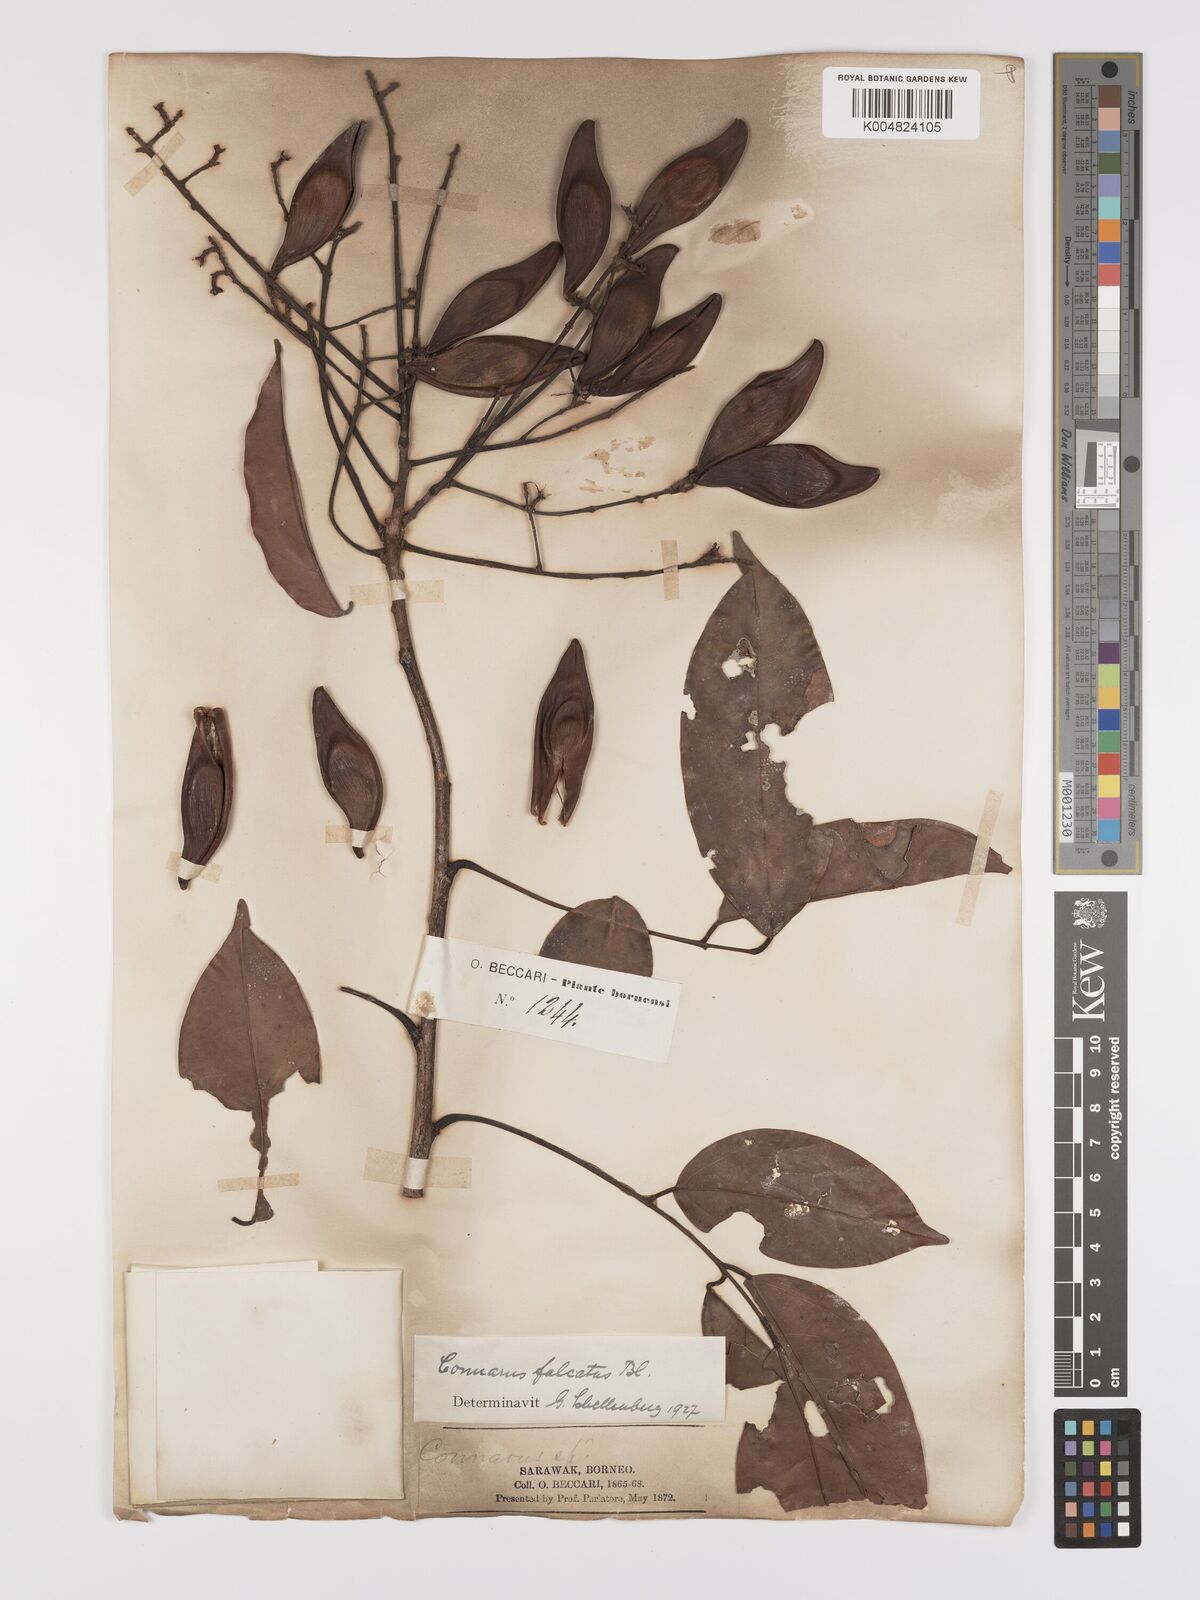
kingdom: Plantae
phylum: Tracheophyta
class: Magnoliopsida
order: Oxalidales
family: Connaraceae
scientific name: Connaraceae
